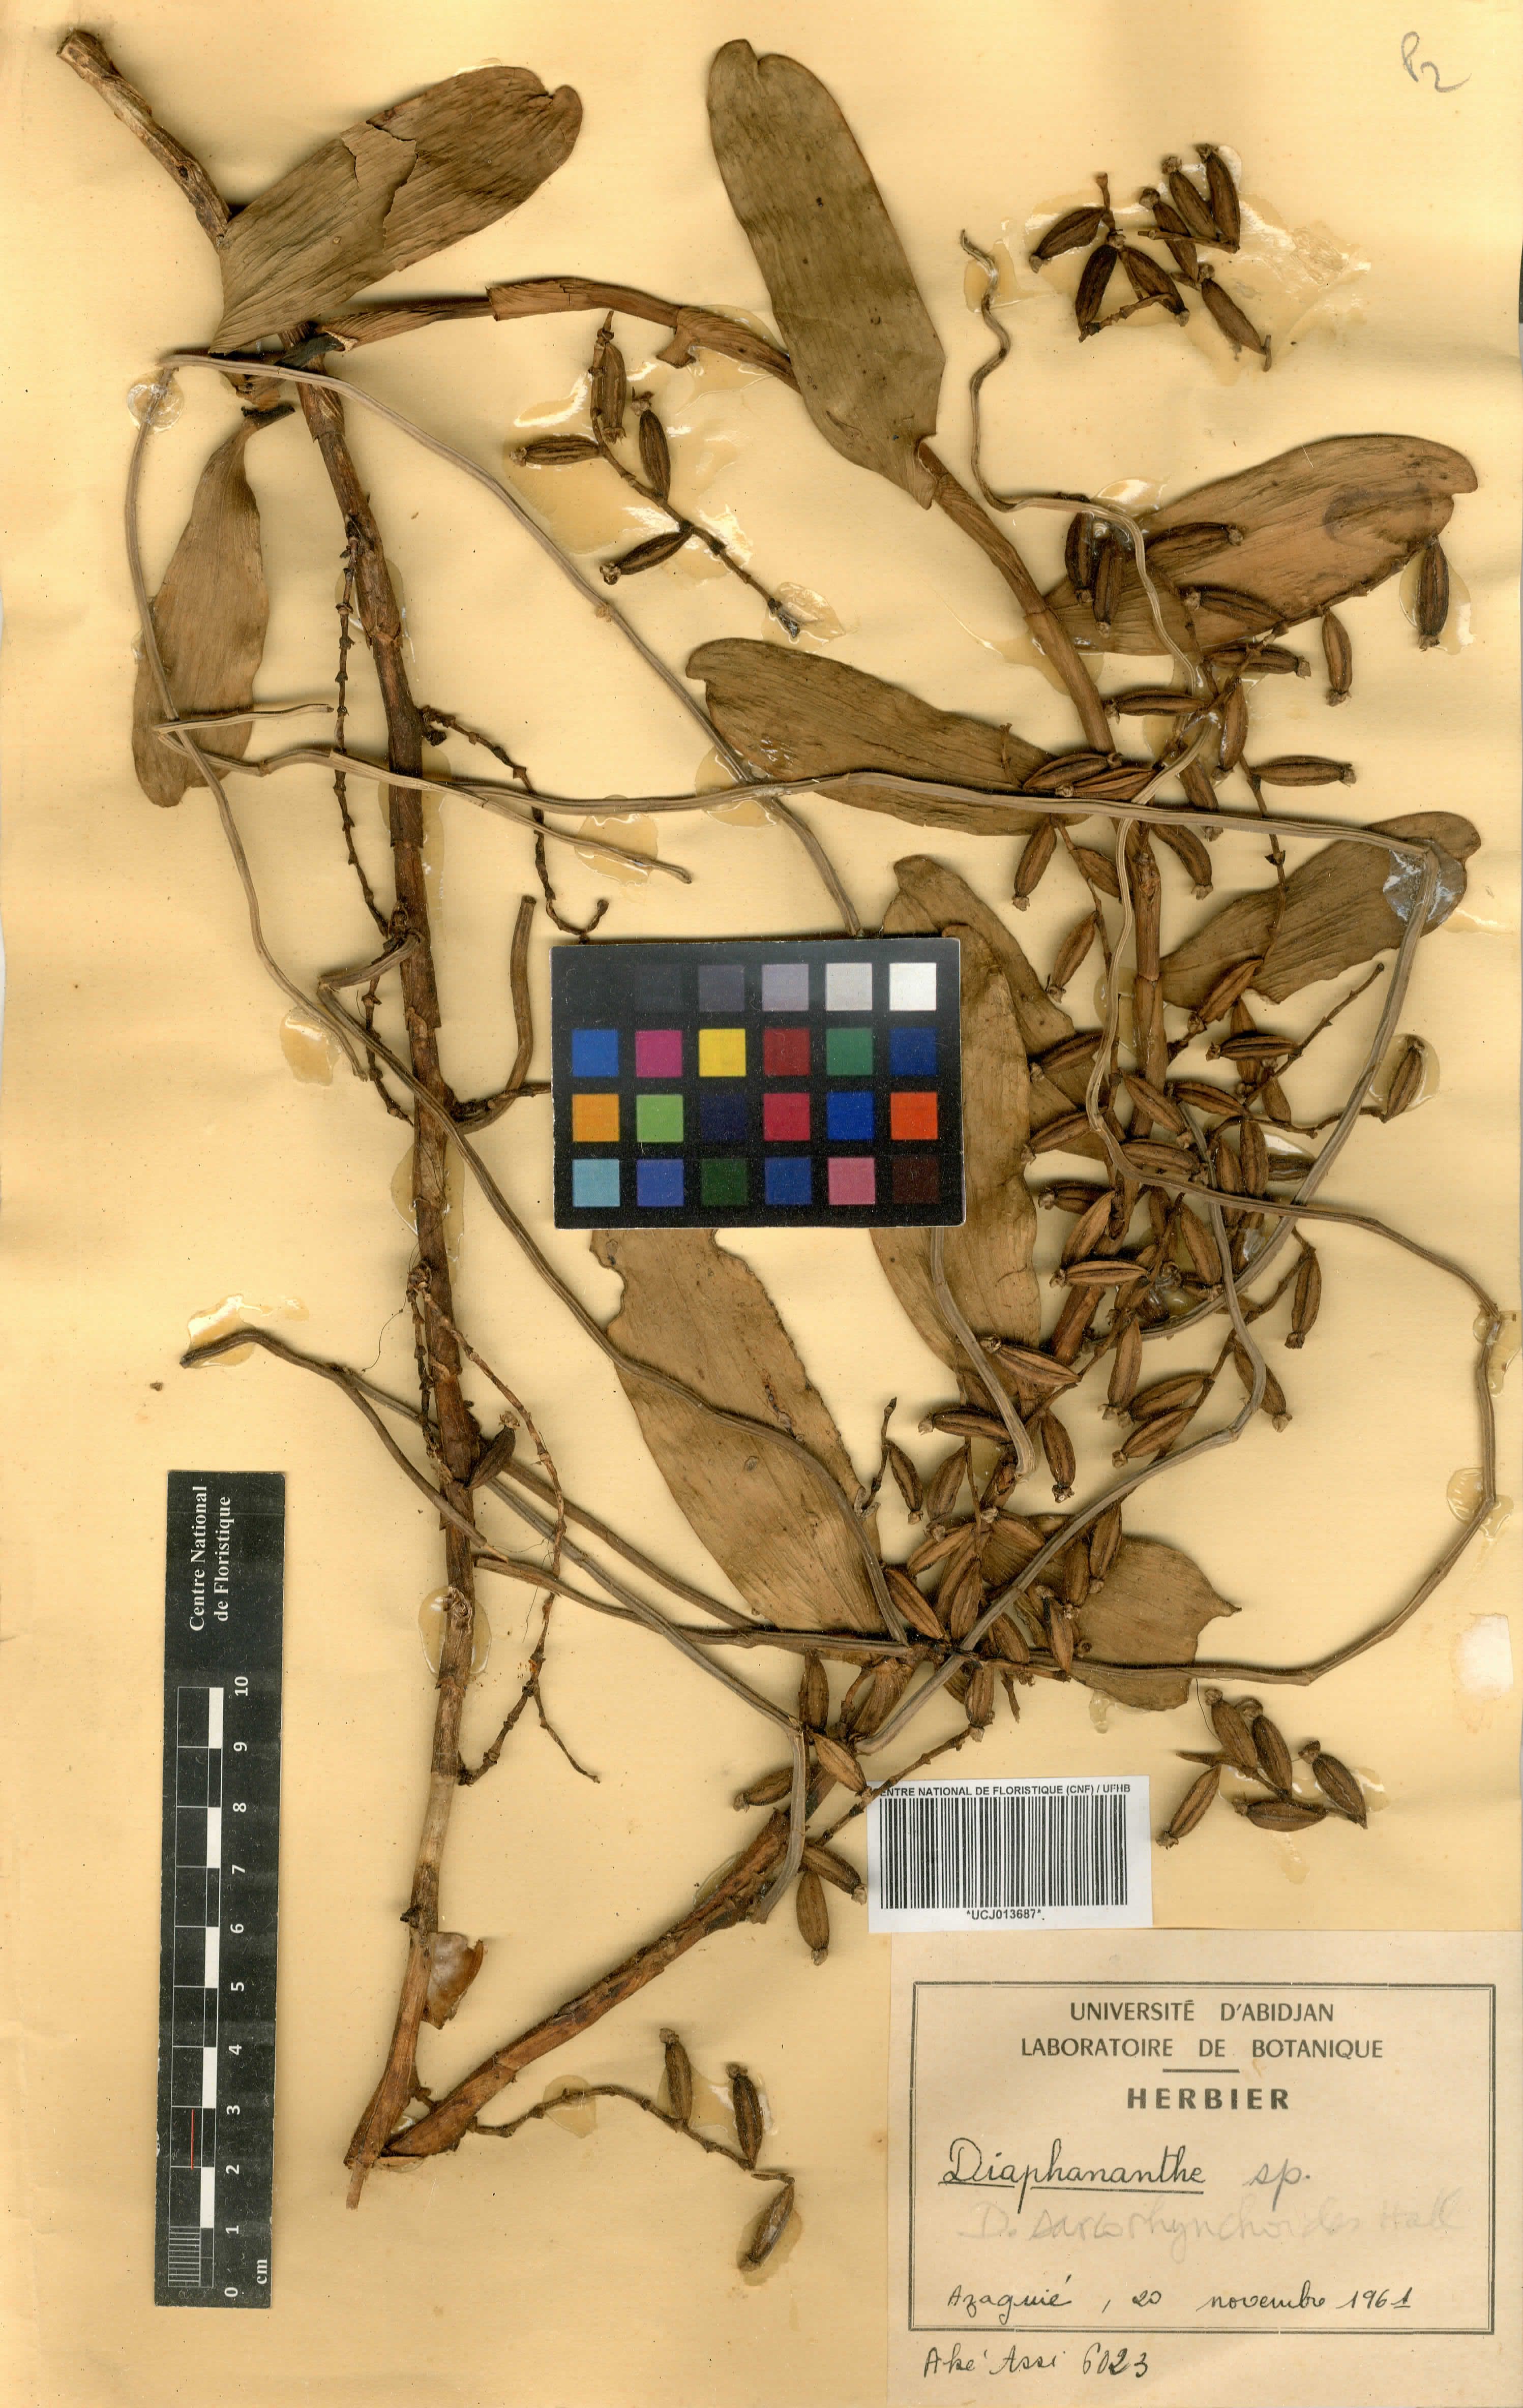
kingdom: Plantae
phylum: Tracheophyta
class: Liliopsida
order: Asparagales
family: Orchidaceae
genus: Diaphananthe
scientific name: Diaphananthe sarcorhynchoides
